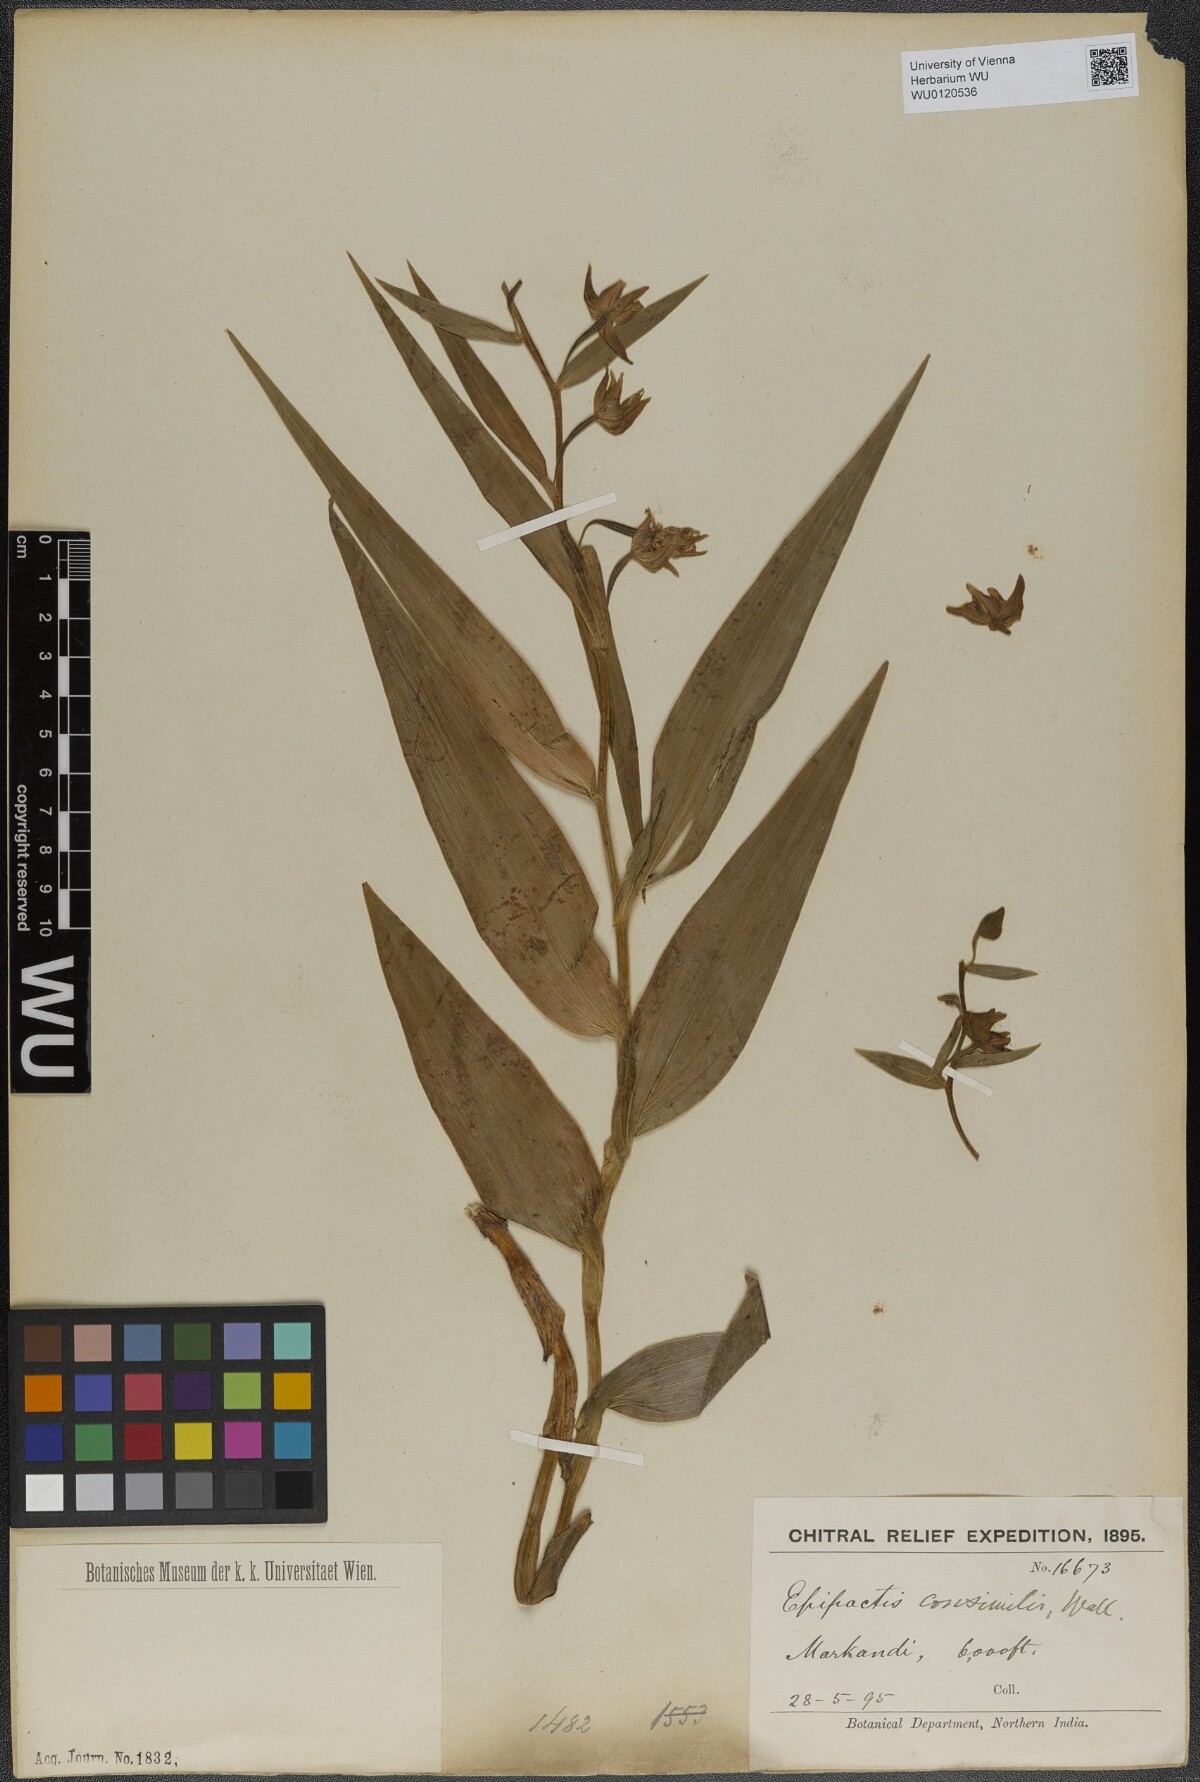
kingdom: Plantae
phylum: Tracheophyta
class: Liliopsida
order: Asparagales
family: Orchidaceae
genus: Epipactis
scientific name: Epipactis helleborine
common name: Broad-leaved helleborine
